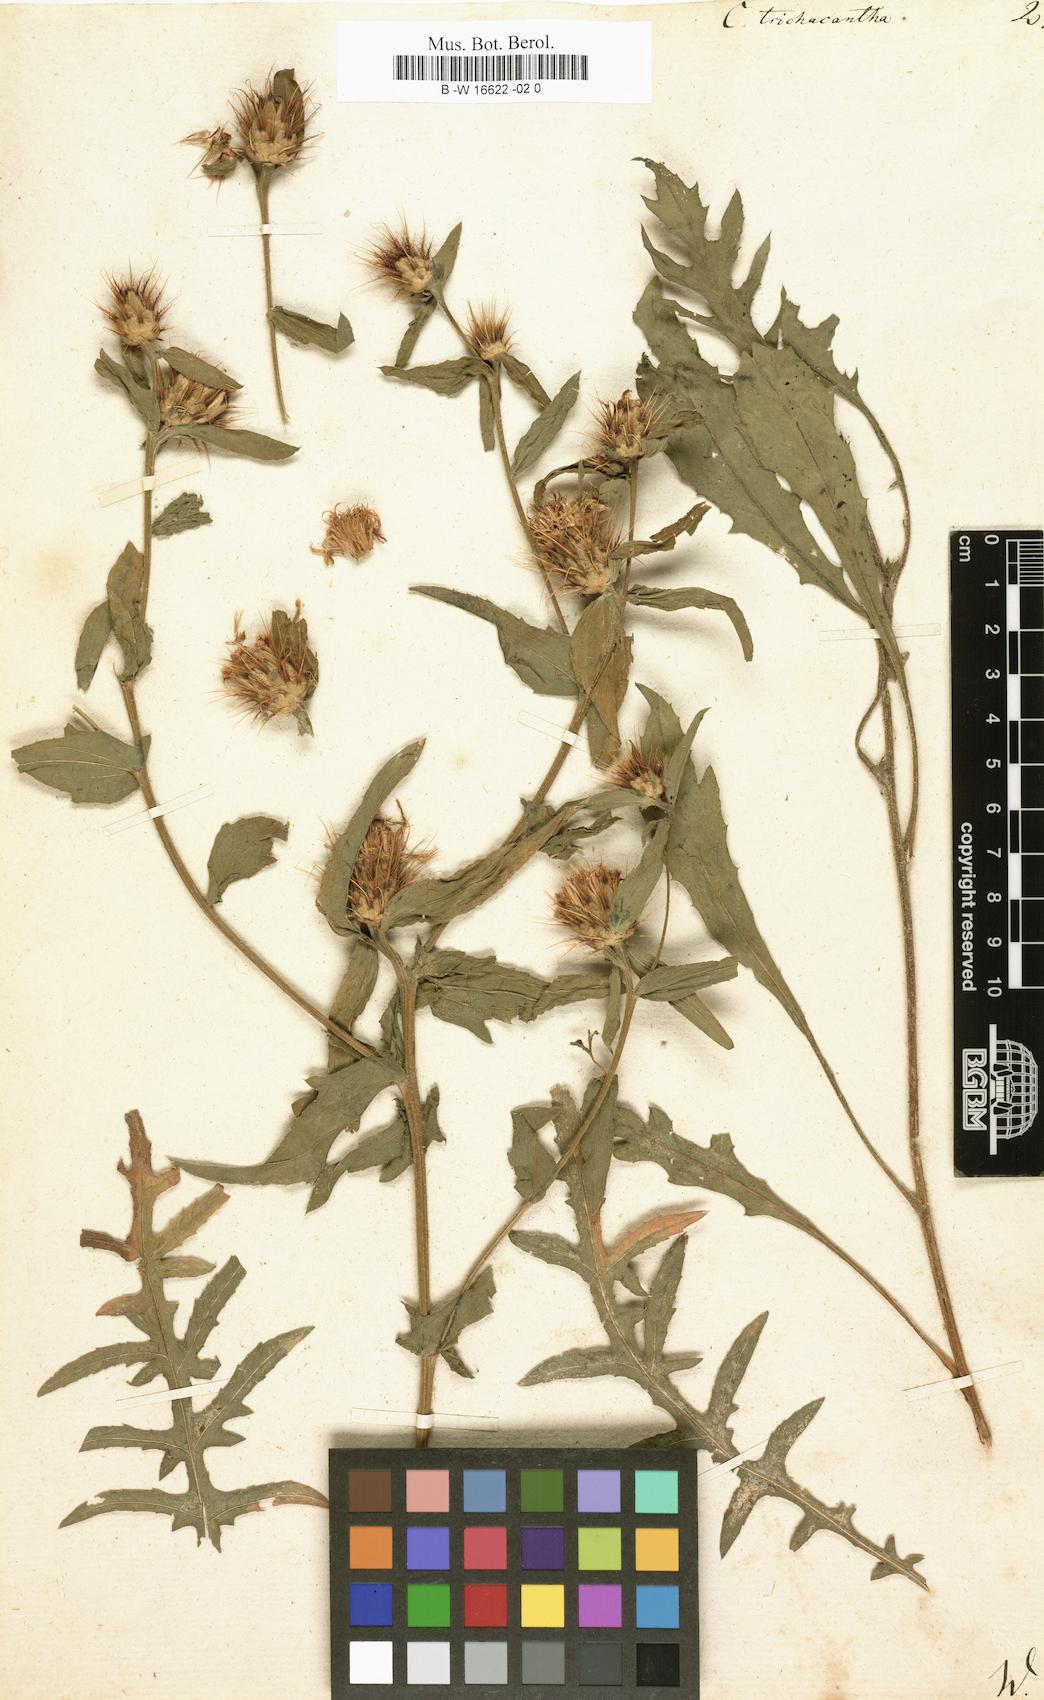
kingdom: Plantae
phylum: Tracheophyta
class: Magnoliopsida
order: Asterales
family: Asteraceae
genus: Centaurea
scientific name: Centaurea calcitrapa
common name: Red star-thistle
